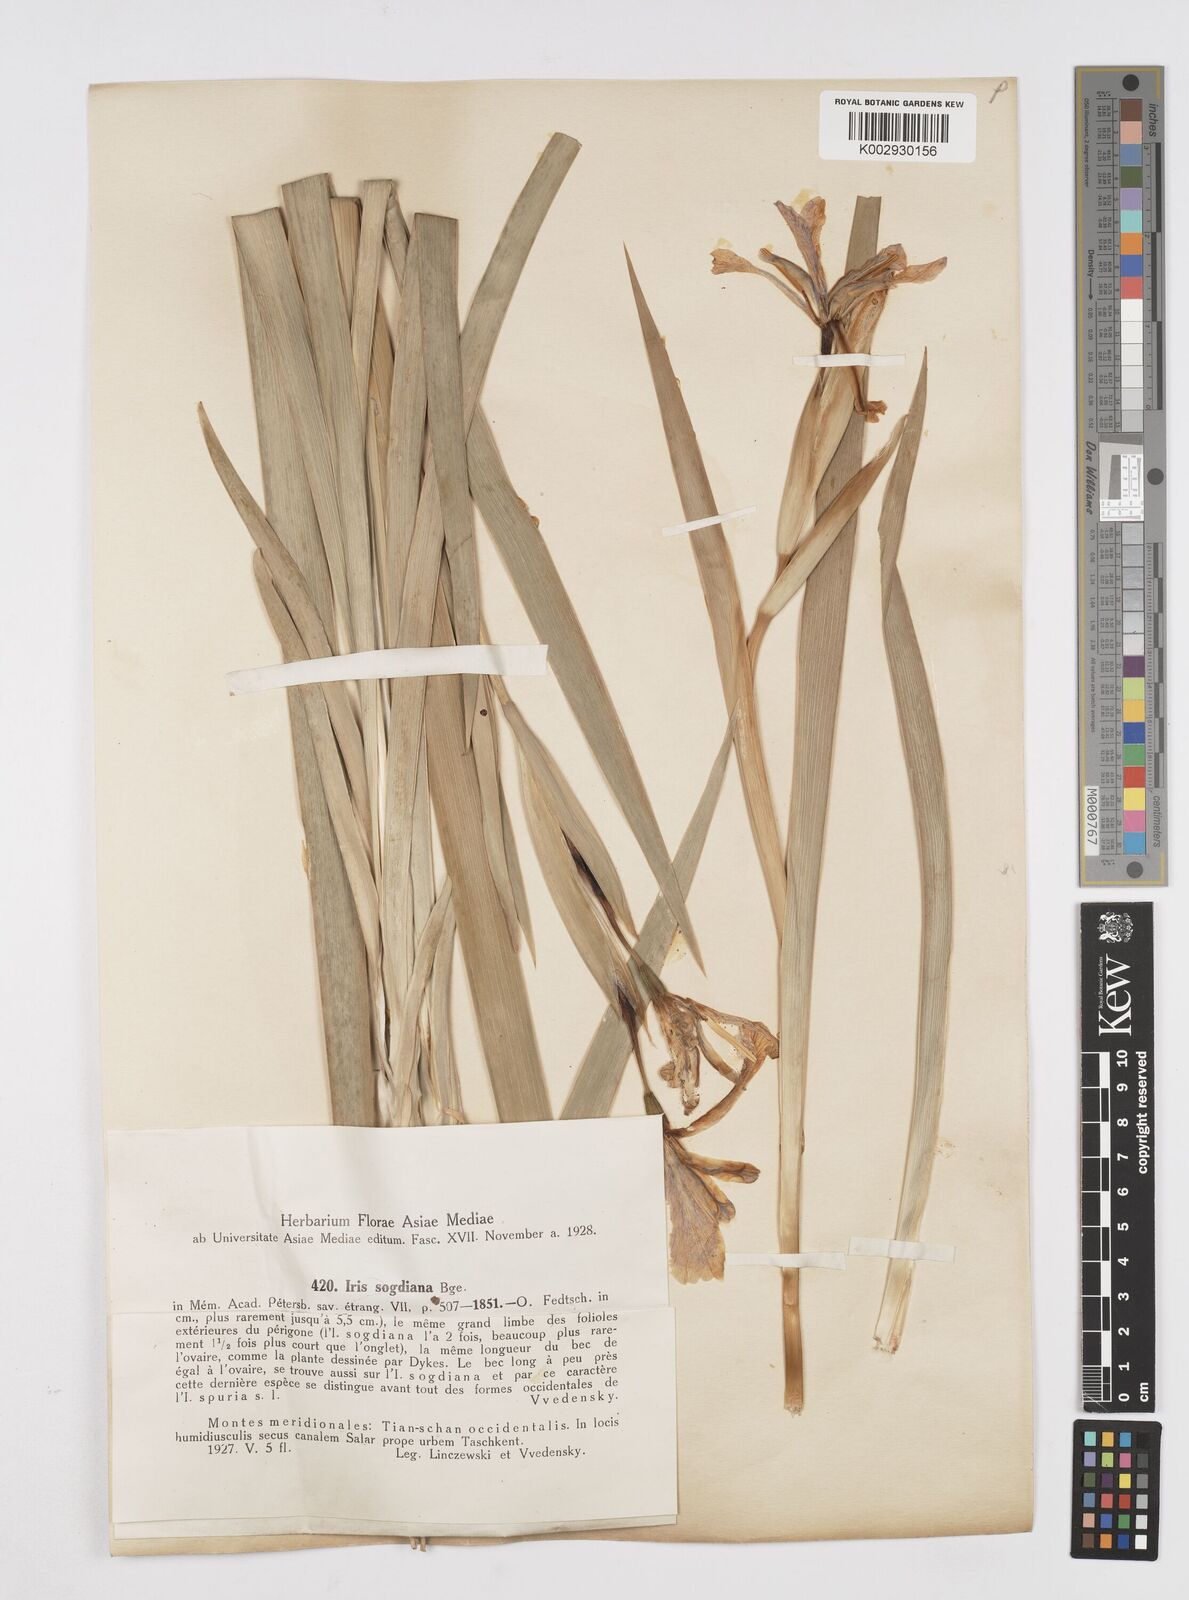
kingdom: Plantae
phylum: Tracheophyta
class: Liliopsida
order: Asparagales
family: Iridaceae
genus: Iris
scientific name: Iris halophila
